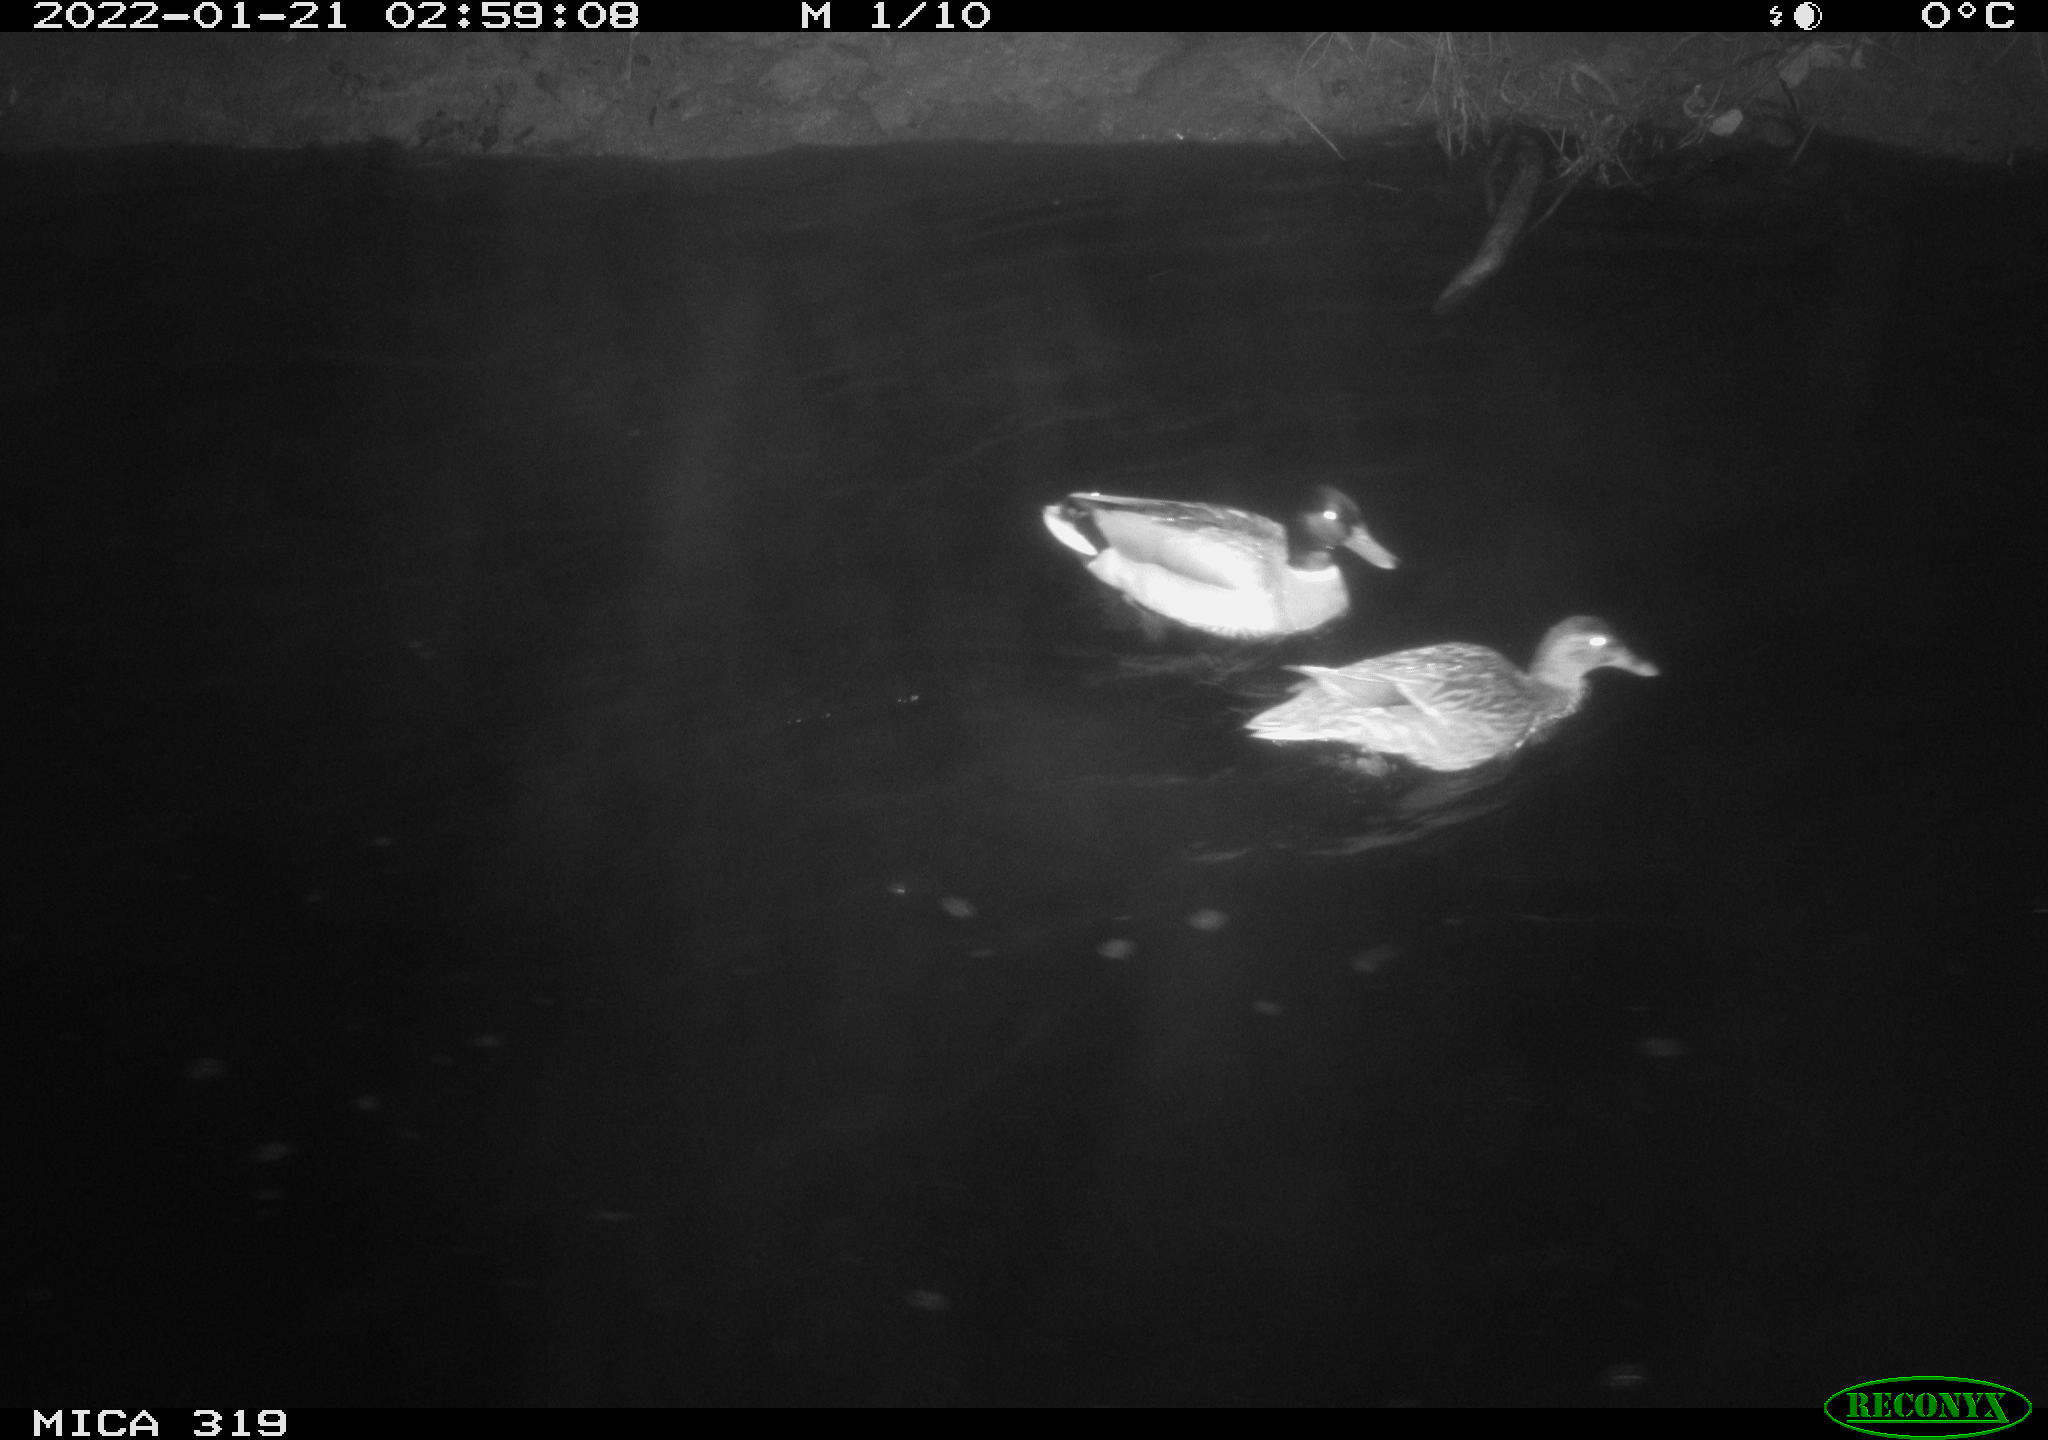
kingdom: Animalia
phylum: Chordata
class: Aves
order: Anseriformes
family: Anatidae
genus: Anas
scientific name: Anas platyrhynchos
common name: Mallard
